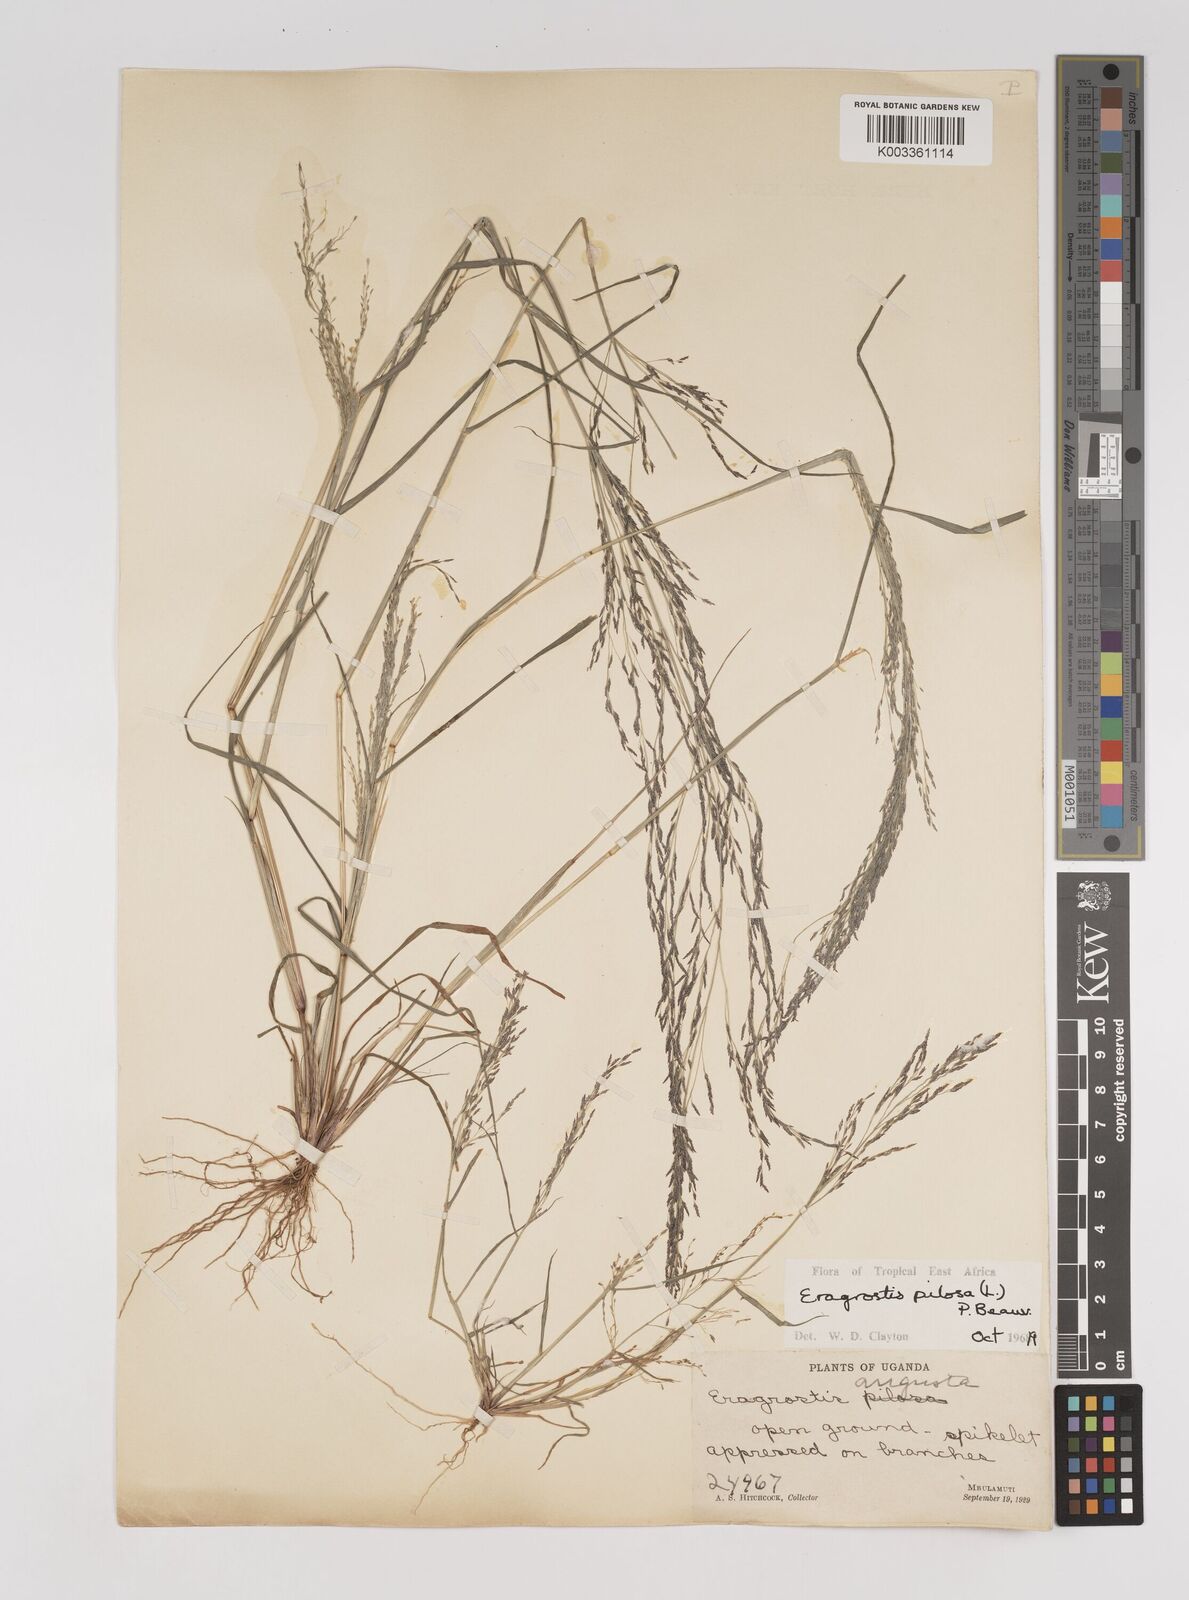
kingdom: Plantae
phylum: Tracheophyta
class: Liliopsida
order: Poales
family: Poaceae
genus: Eragrostis
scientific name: Eragrostis pilosa
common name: Indian lovegrass
